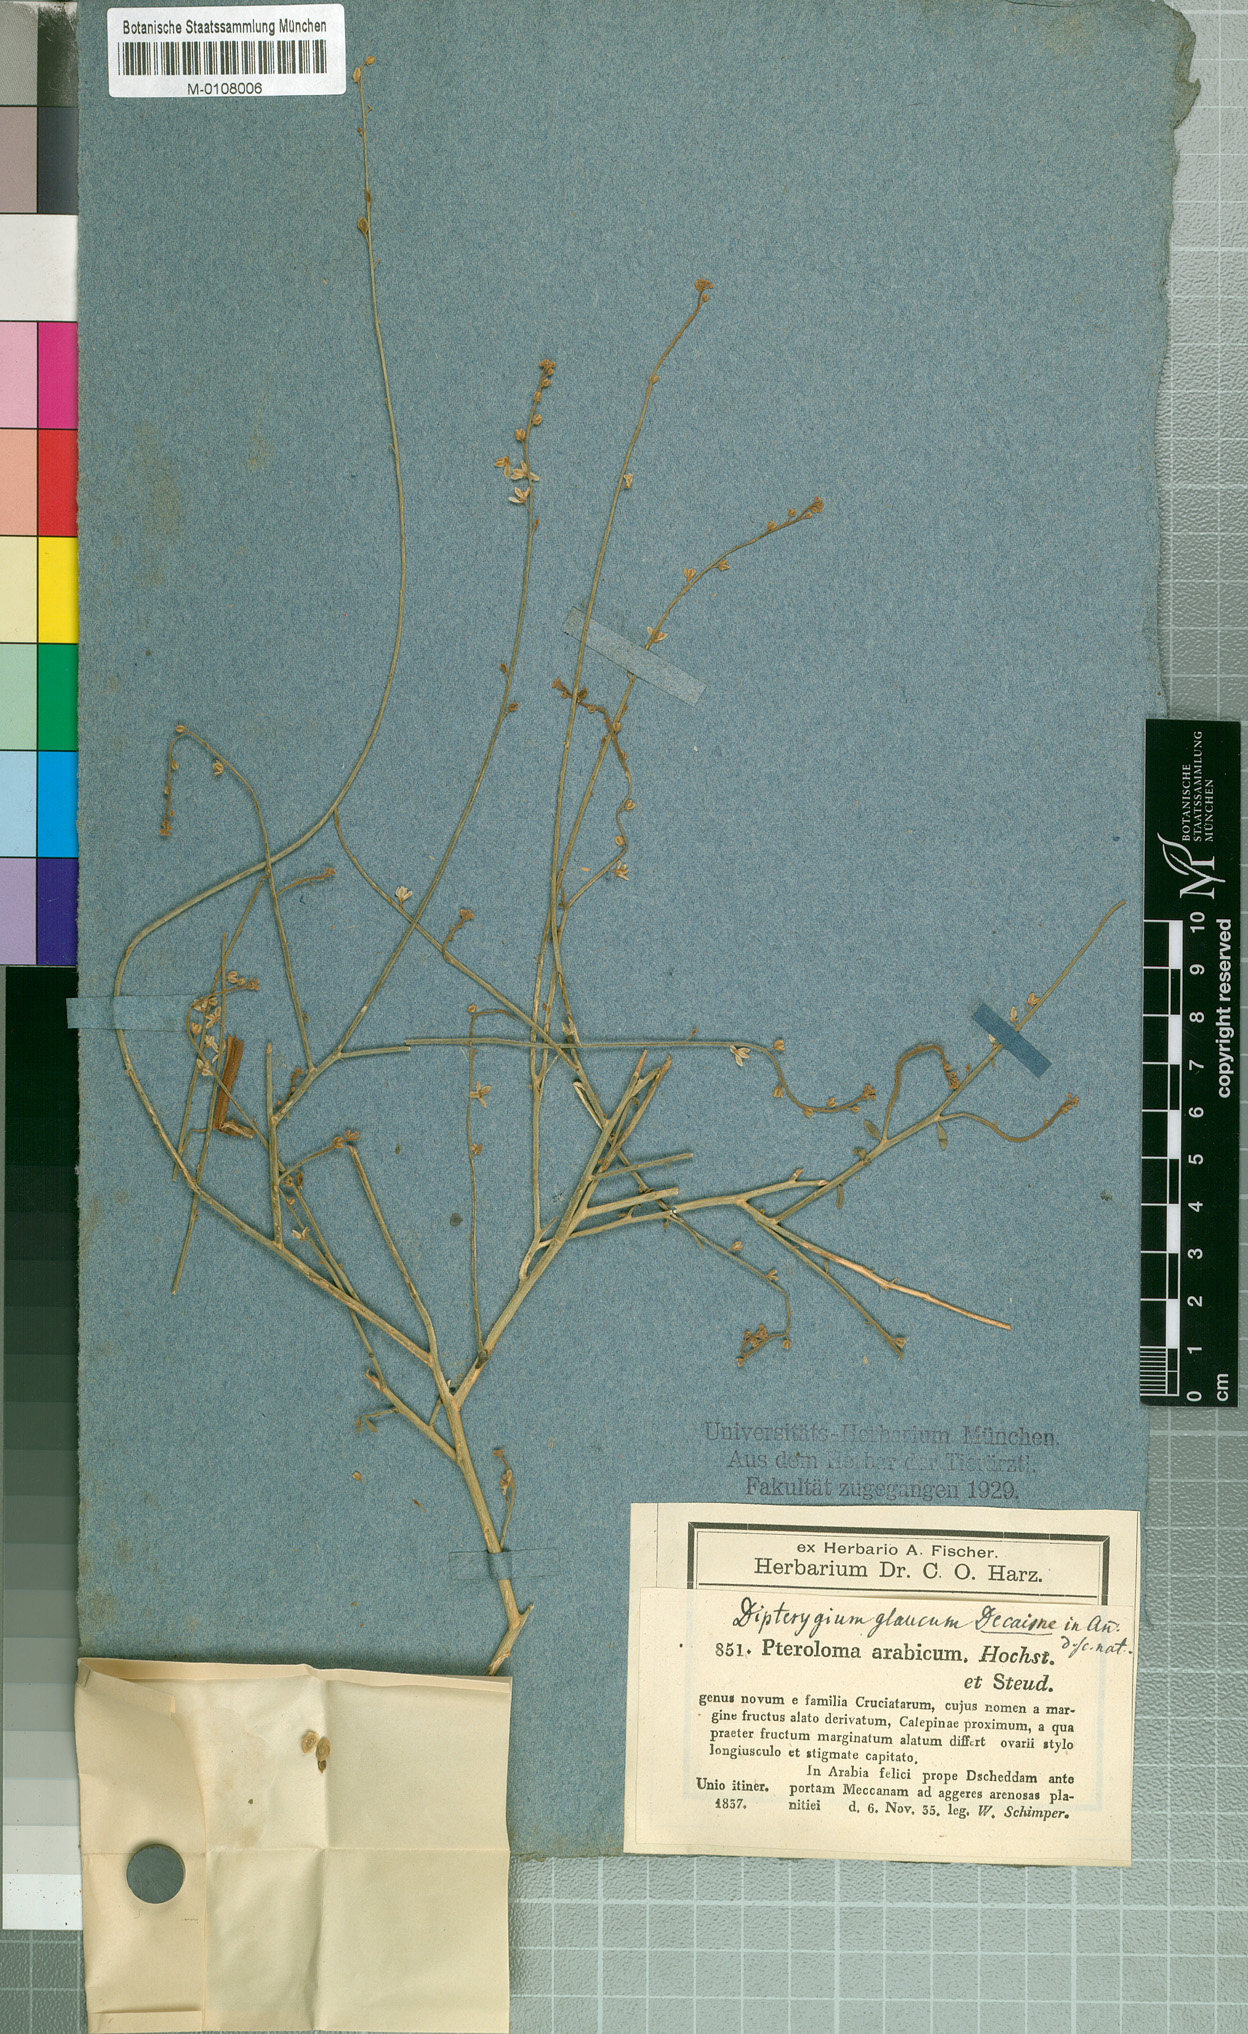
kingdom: Plantae
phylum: Tracheophyta
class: Magnoliopsida
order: Brassicales
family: Cleomaceae
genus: Dipterygium
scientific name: Dipterygium glaucum
